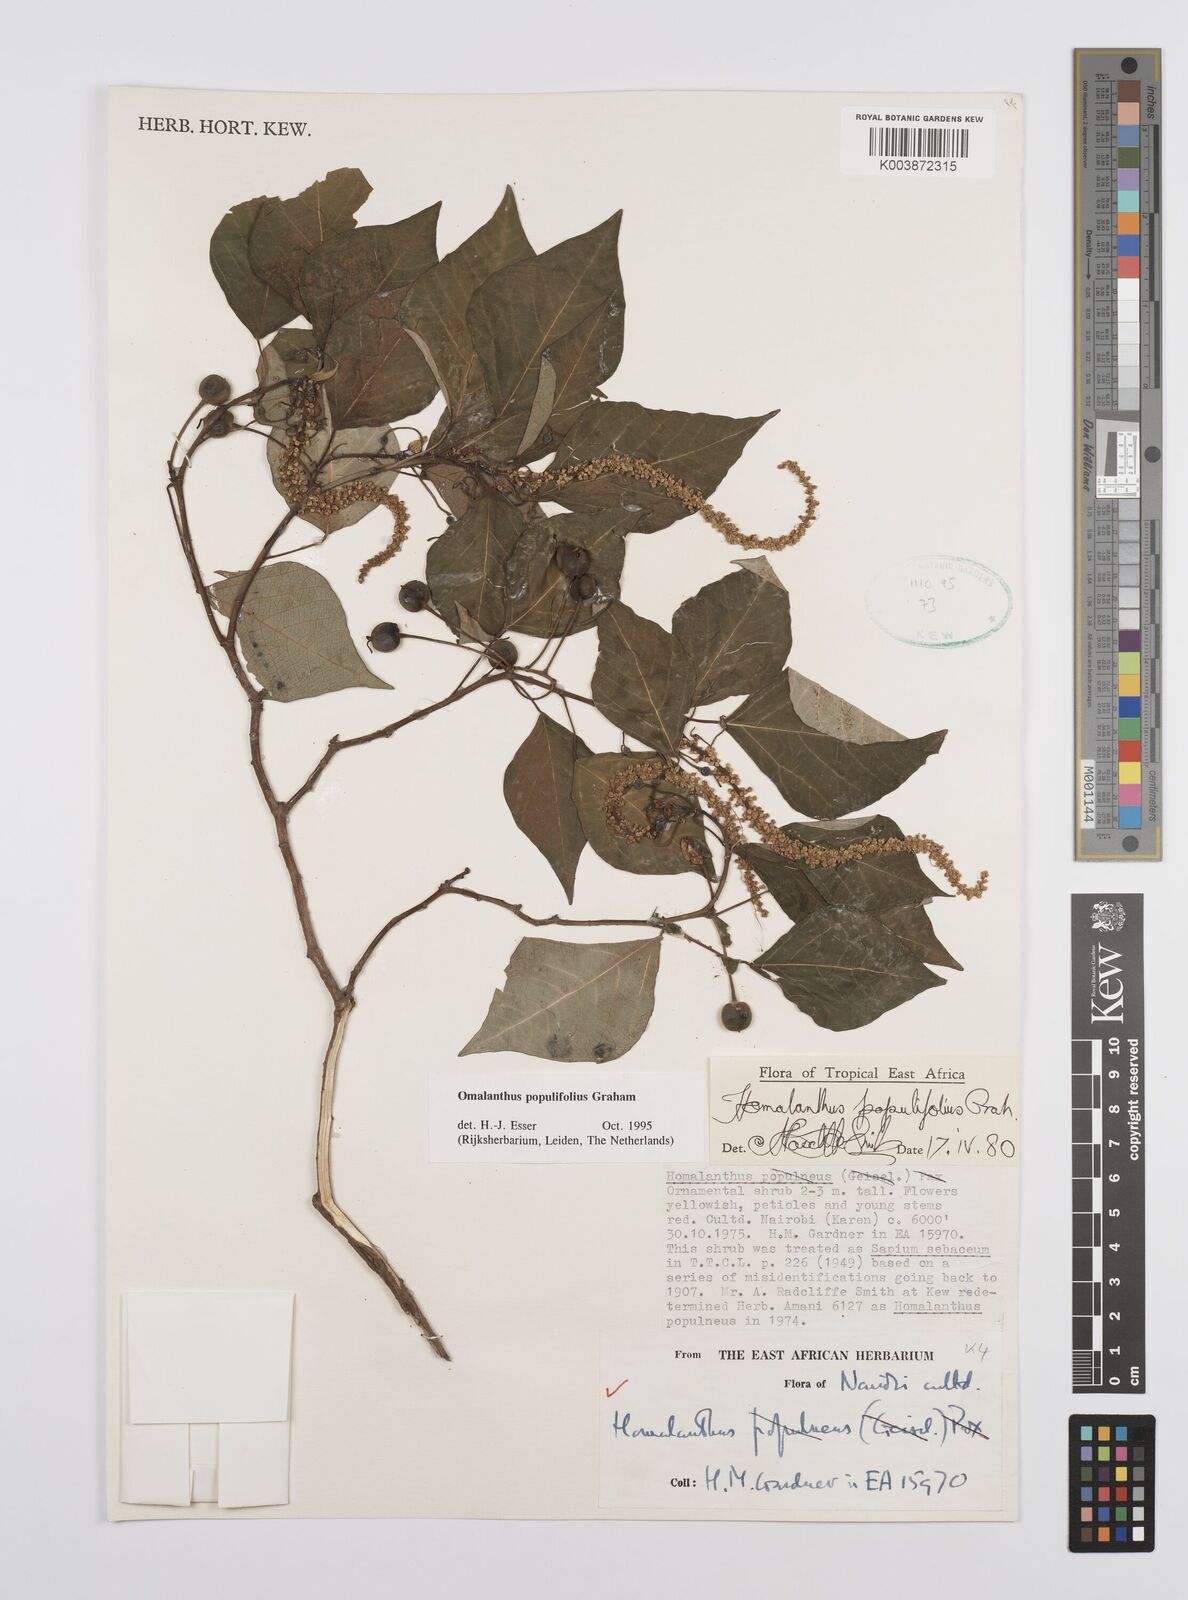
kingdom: Plantae
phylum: Tracheophyta
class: Magnoliopsida
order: Malpighiales
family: Euphorbiaceae
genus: Homalanthus
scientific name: Homalanthus populifolius
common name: Queensland poplar
